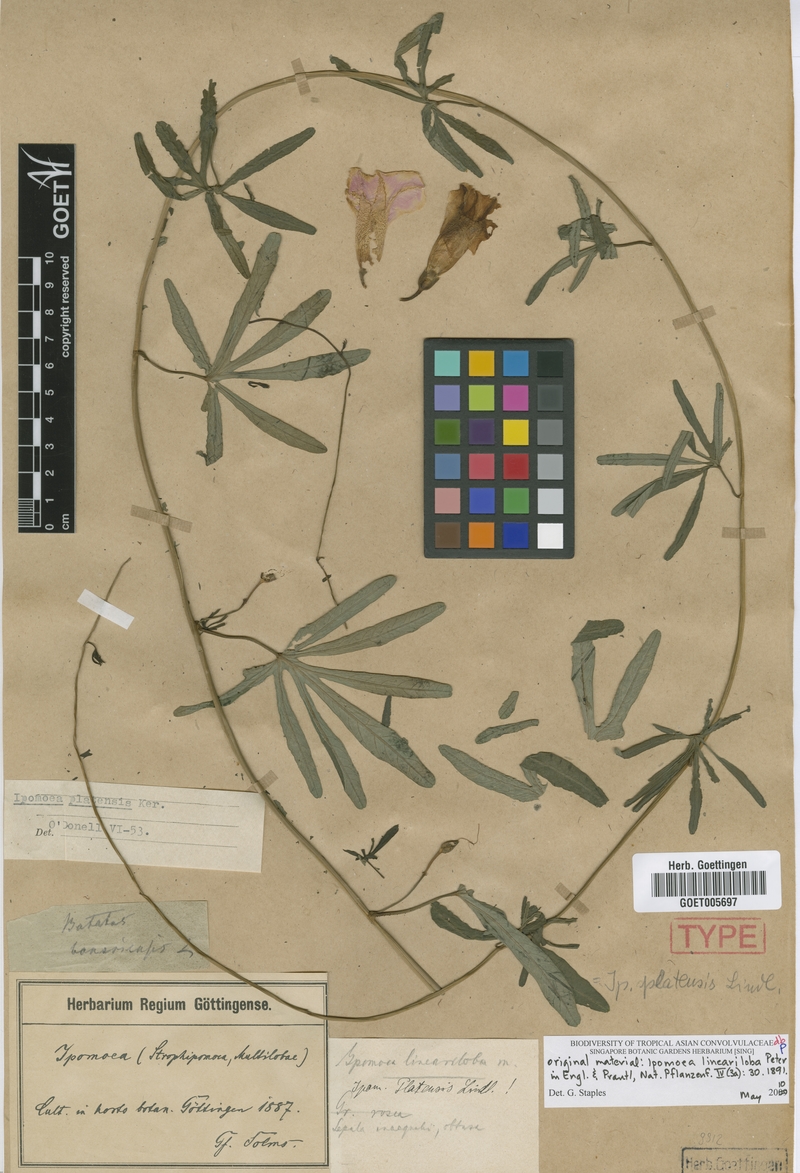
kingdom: Plantae
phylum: Tracheophyta
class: Magnoliopsida
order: Solanales
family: Convolvulaceae
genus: Ipomoea
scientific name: Ipomoea platensis
